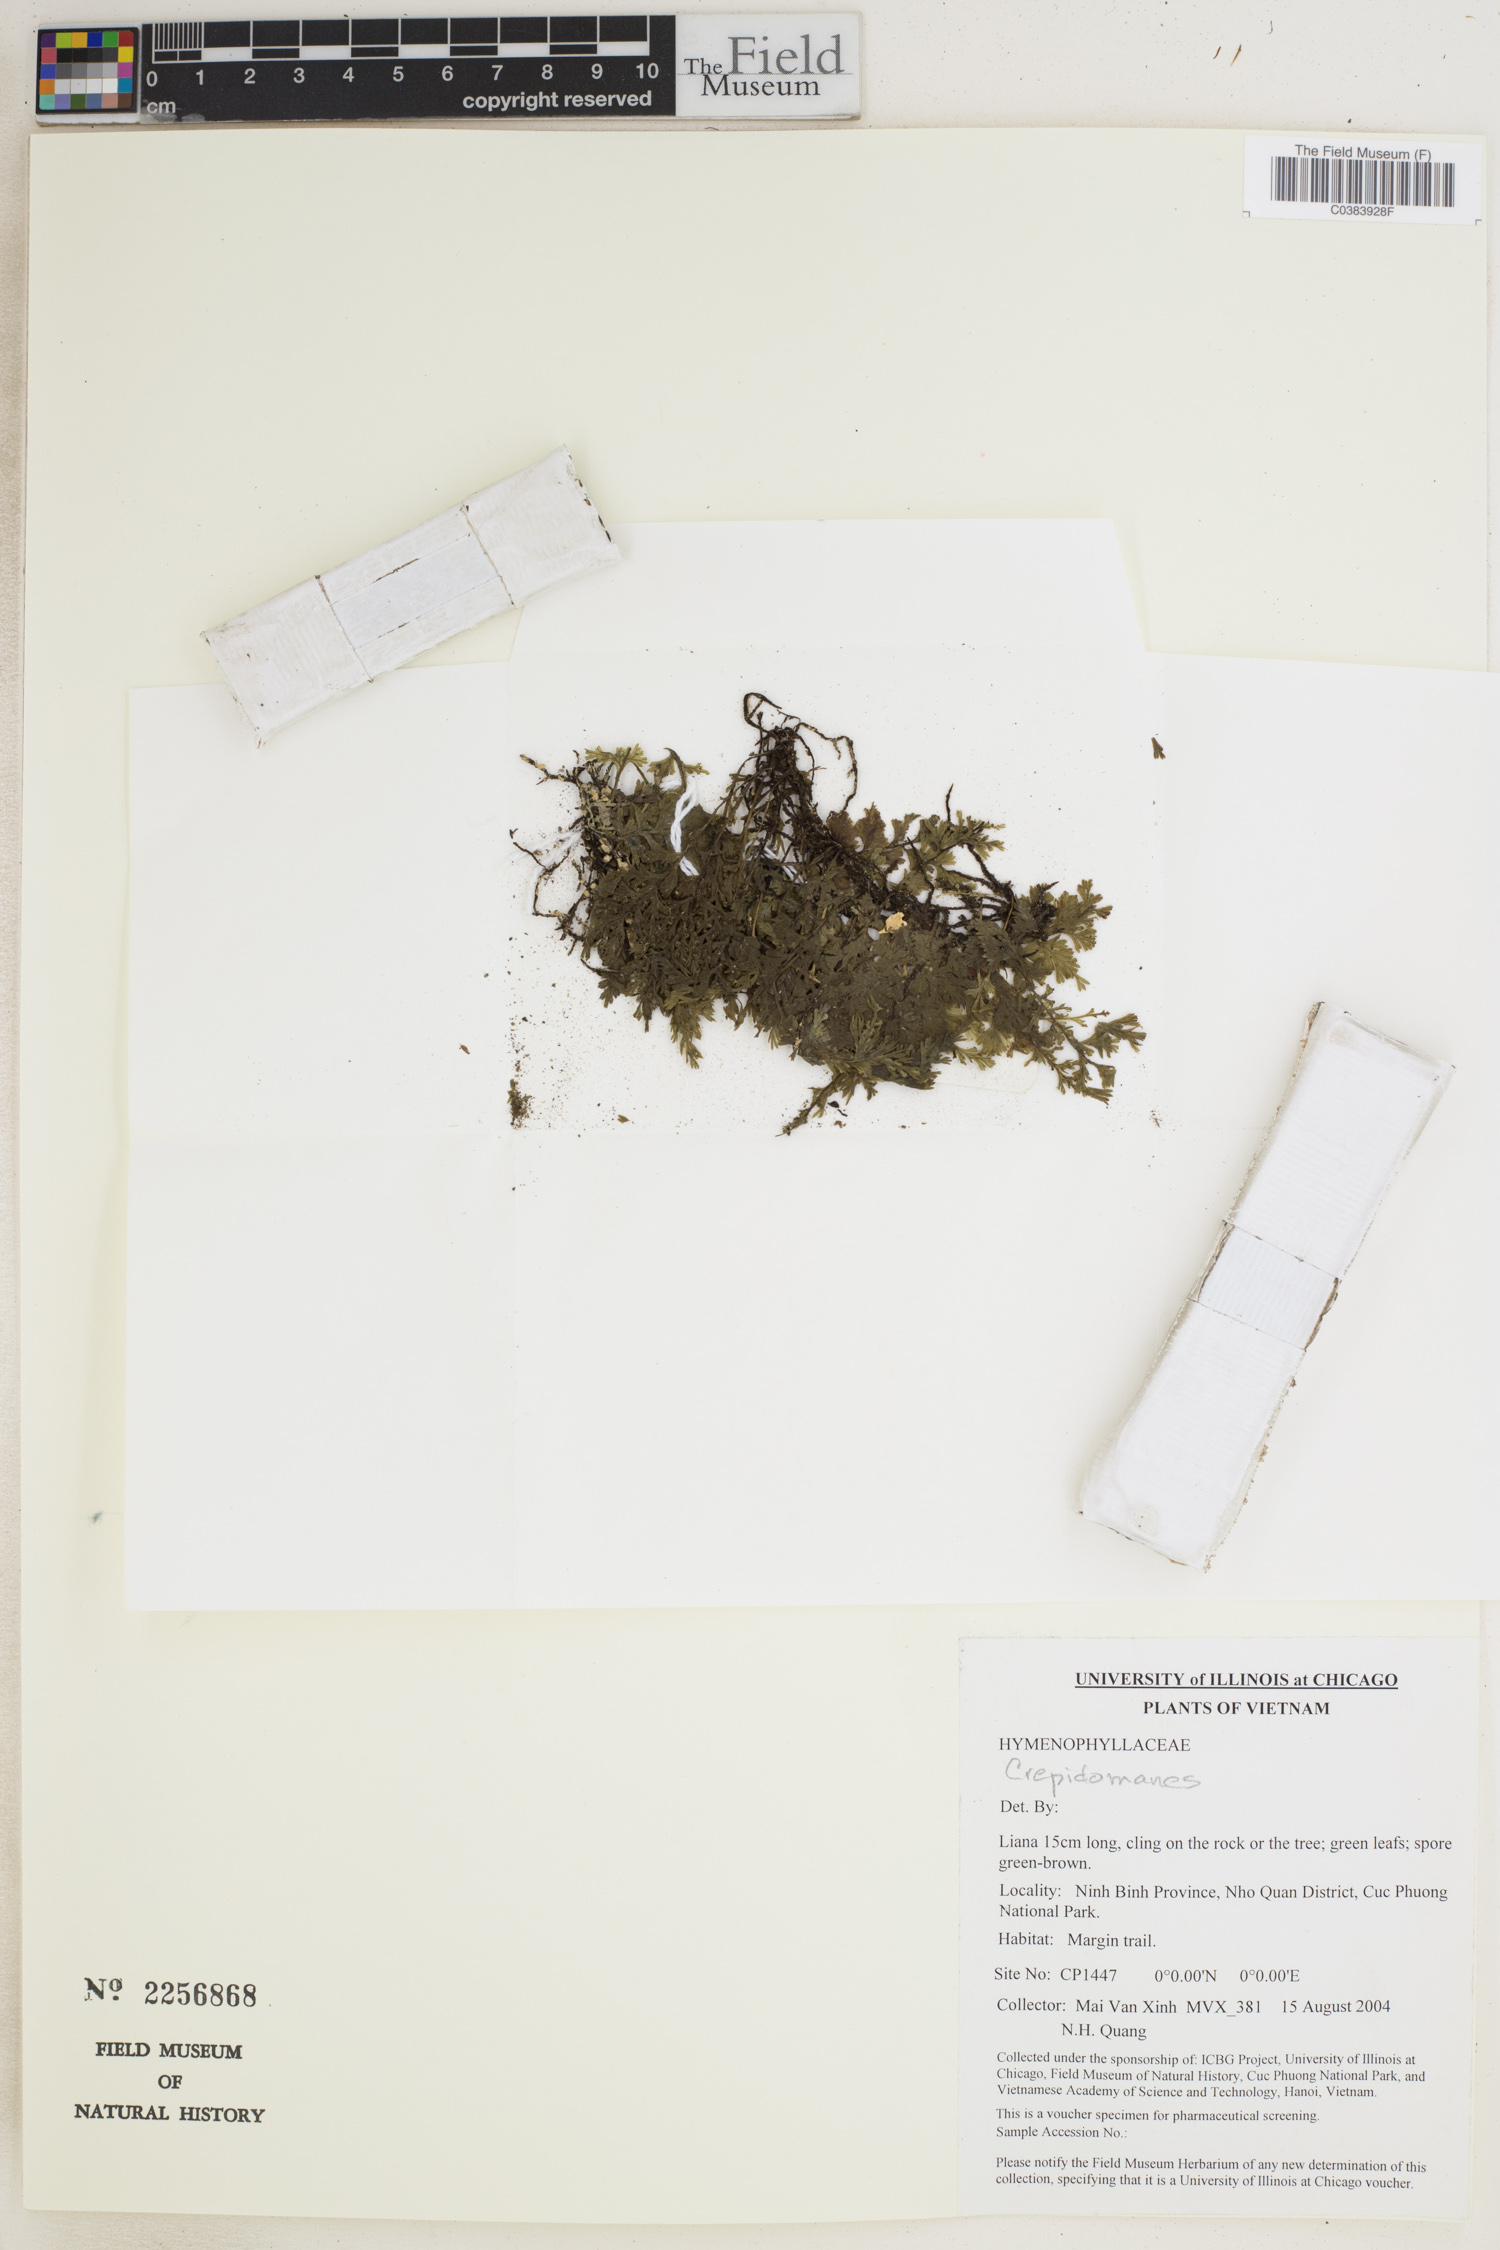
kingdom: Plantae
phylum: Tracheophyta
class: Polypodiopsida
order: Hymenophyllales
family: Hymenophyllaceae
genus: Crepidomanes
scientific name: Crepidomanes
